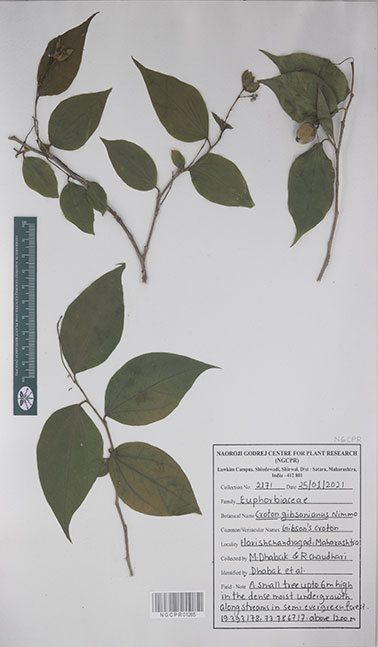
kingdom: Plantae
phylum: Tracheophyta
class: Magnoliopsida
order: Malpighiales
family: Euphorbiaceae
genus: Croton
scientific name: Croton gibsonianus
